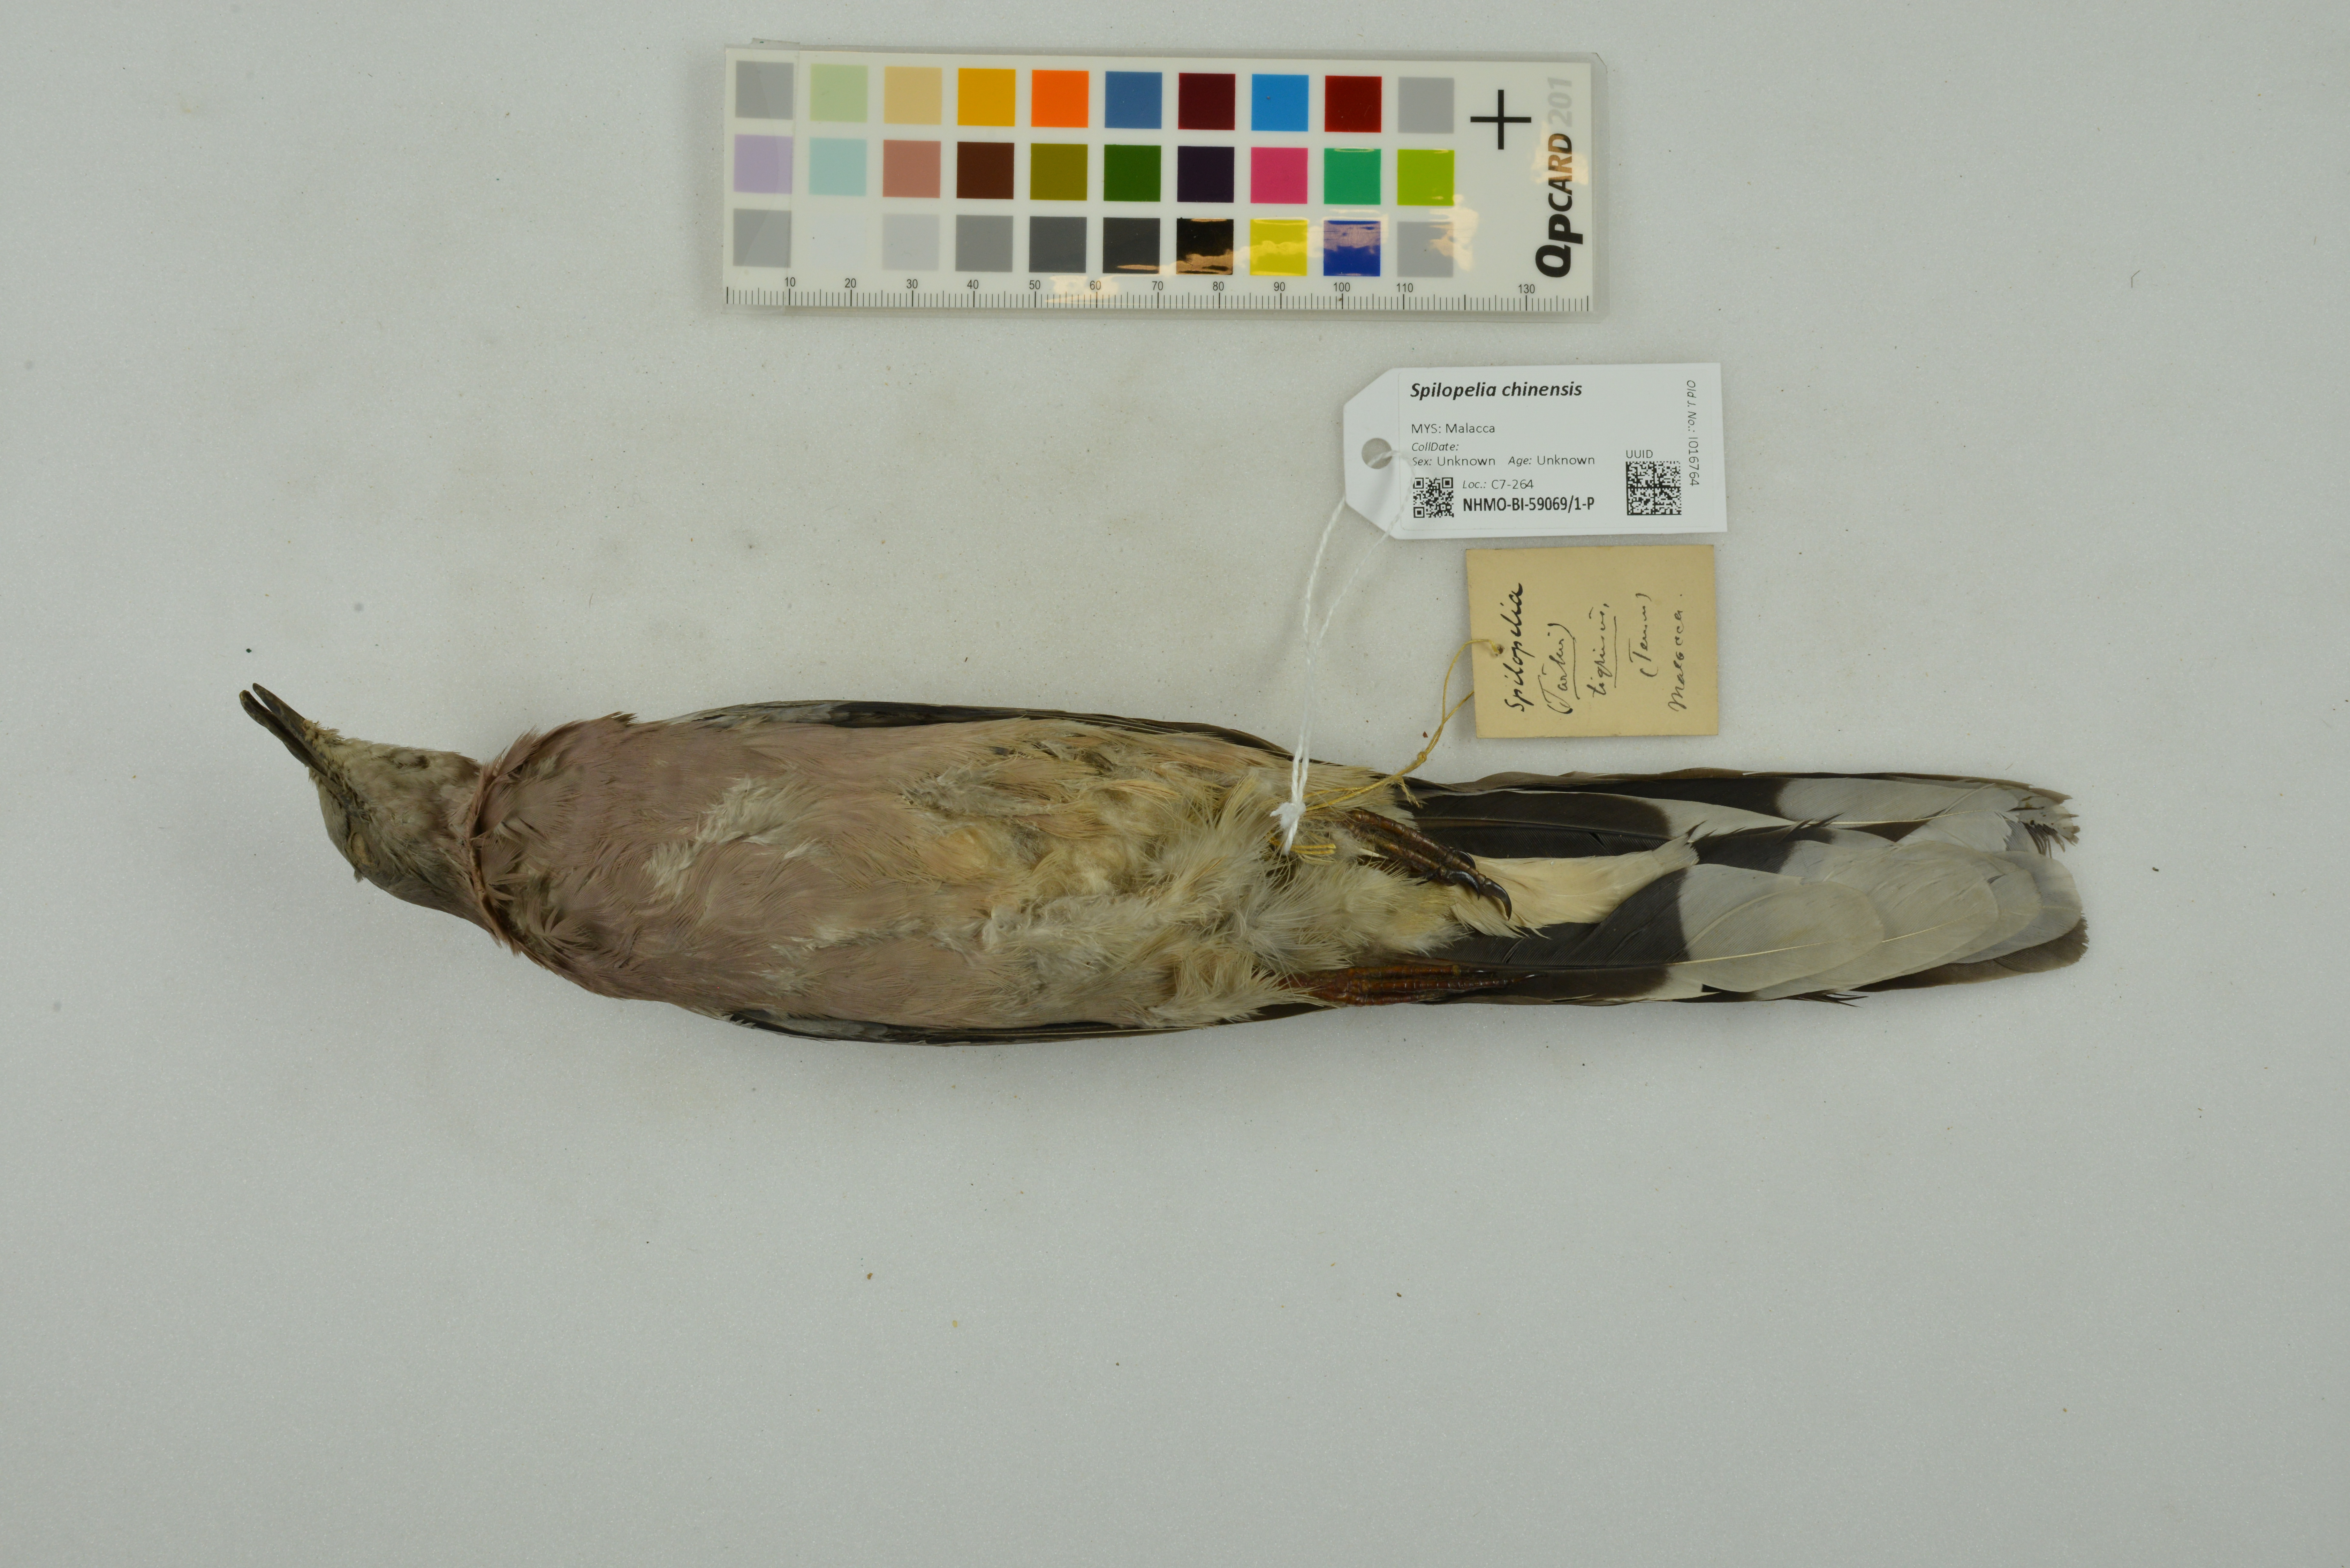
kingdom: Animalia
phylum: Chordata
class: Aves
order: Columbiformes
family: Columbidae
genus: Spilopelia
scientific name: Spilopelia chinensis
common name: Spotted dove
